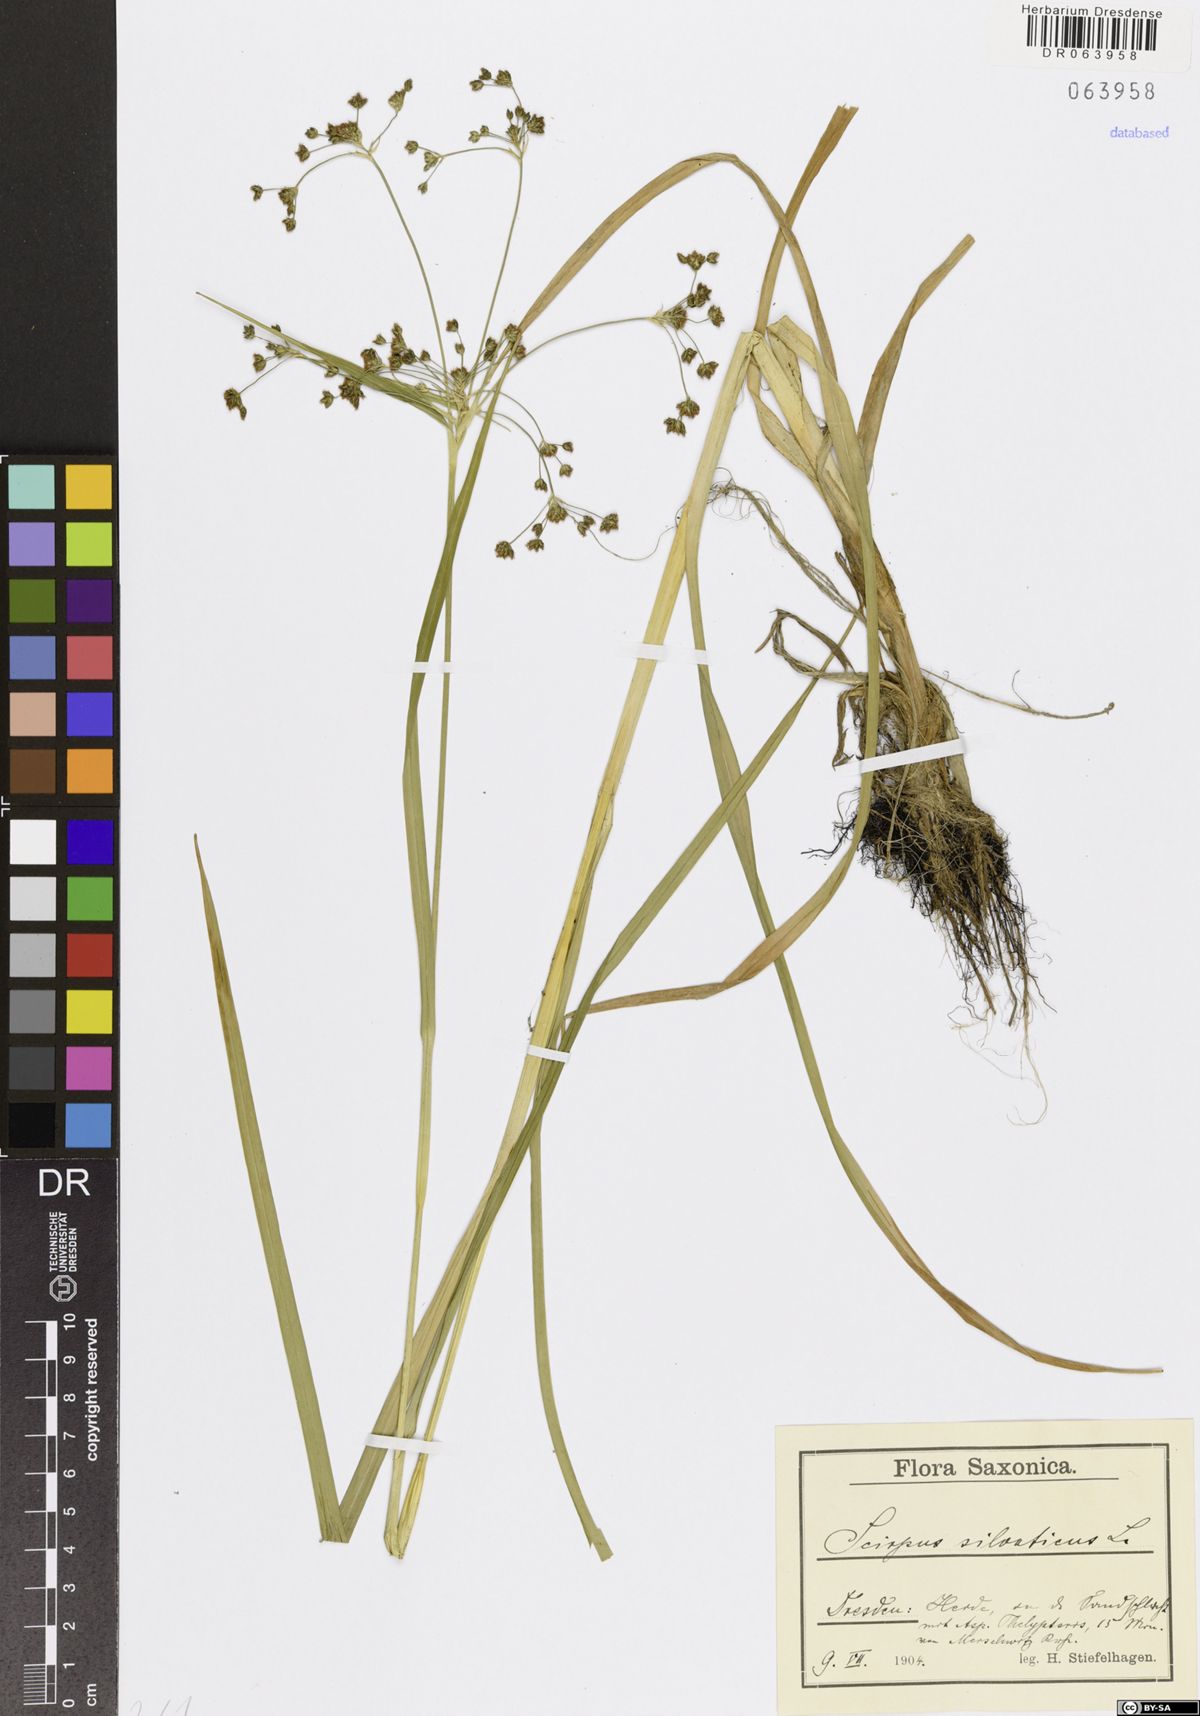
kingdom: Plantae
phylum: Tracheophyta
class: Liliopsida
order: Poales
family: Cyperaceae
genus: Scirpus
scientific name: Scirpus sylvaticus
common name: Wood club-rush
